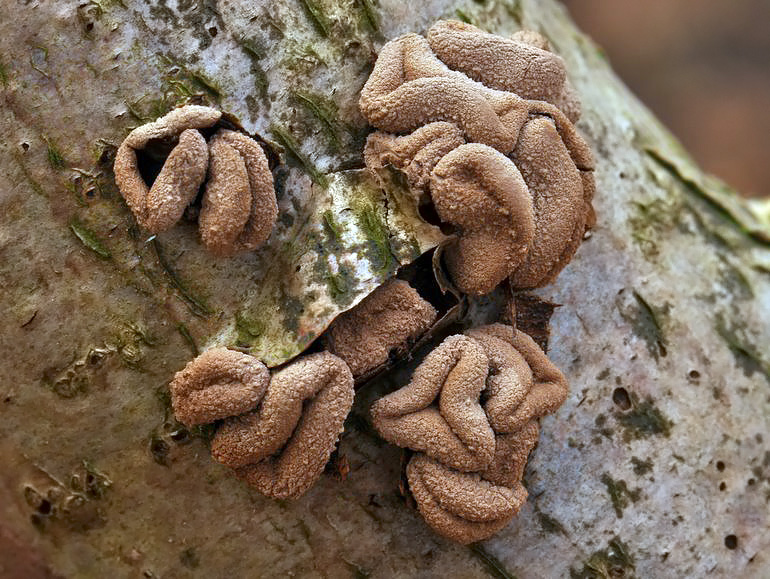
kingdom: Fungi
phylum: Ascomycota
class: Leotiomycetes
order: Helotiales
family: Cenangiaceae
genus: Encoelia
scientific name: Encoelia furfuracea
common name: hassel-læderskive
